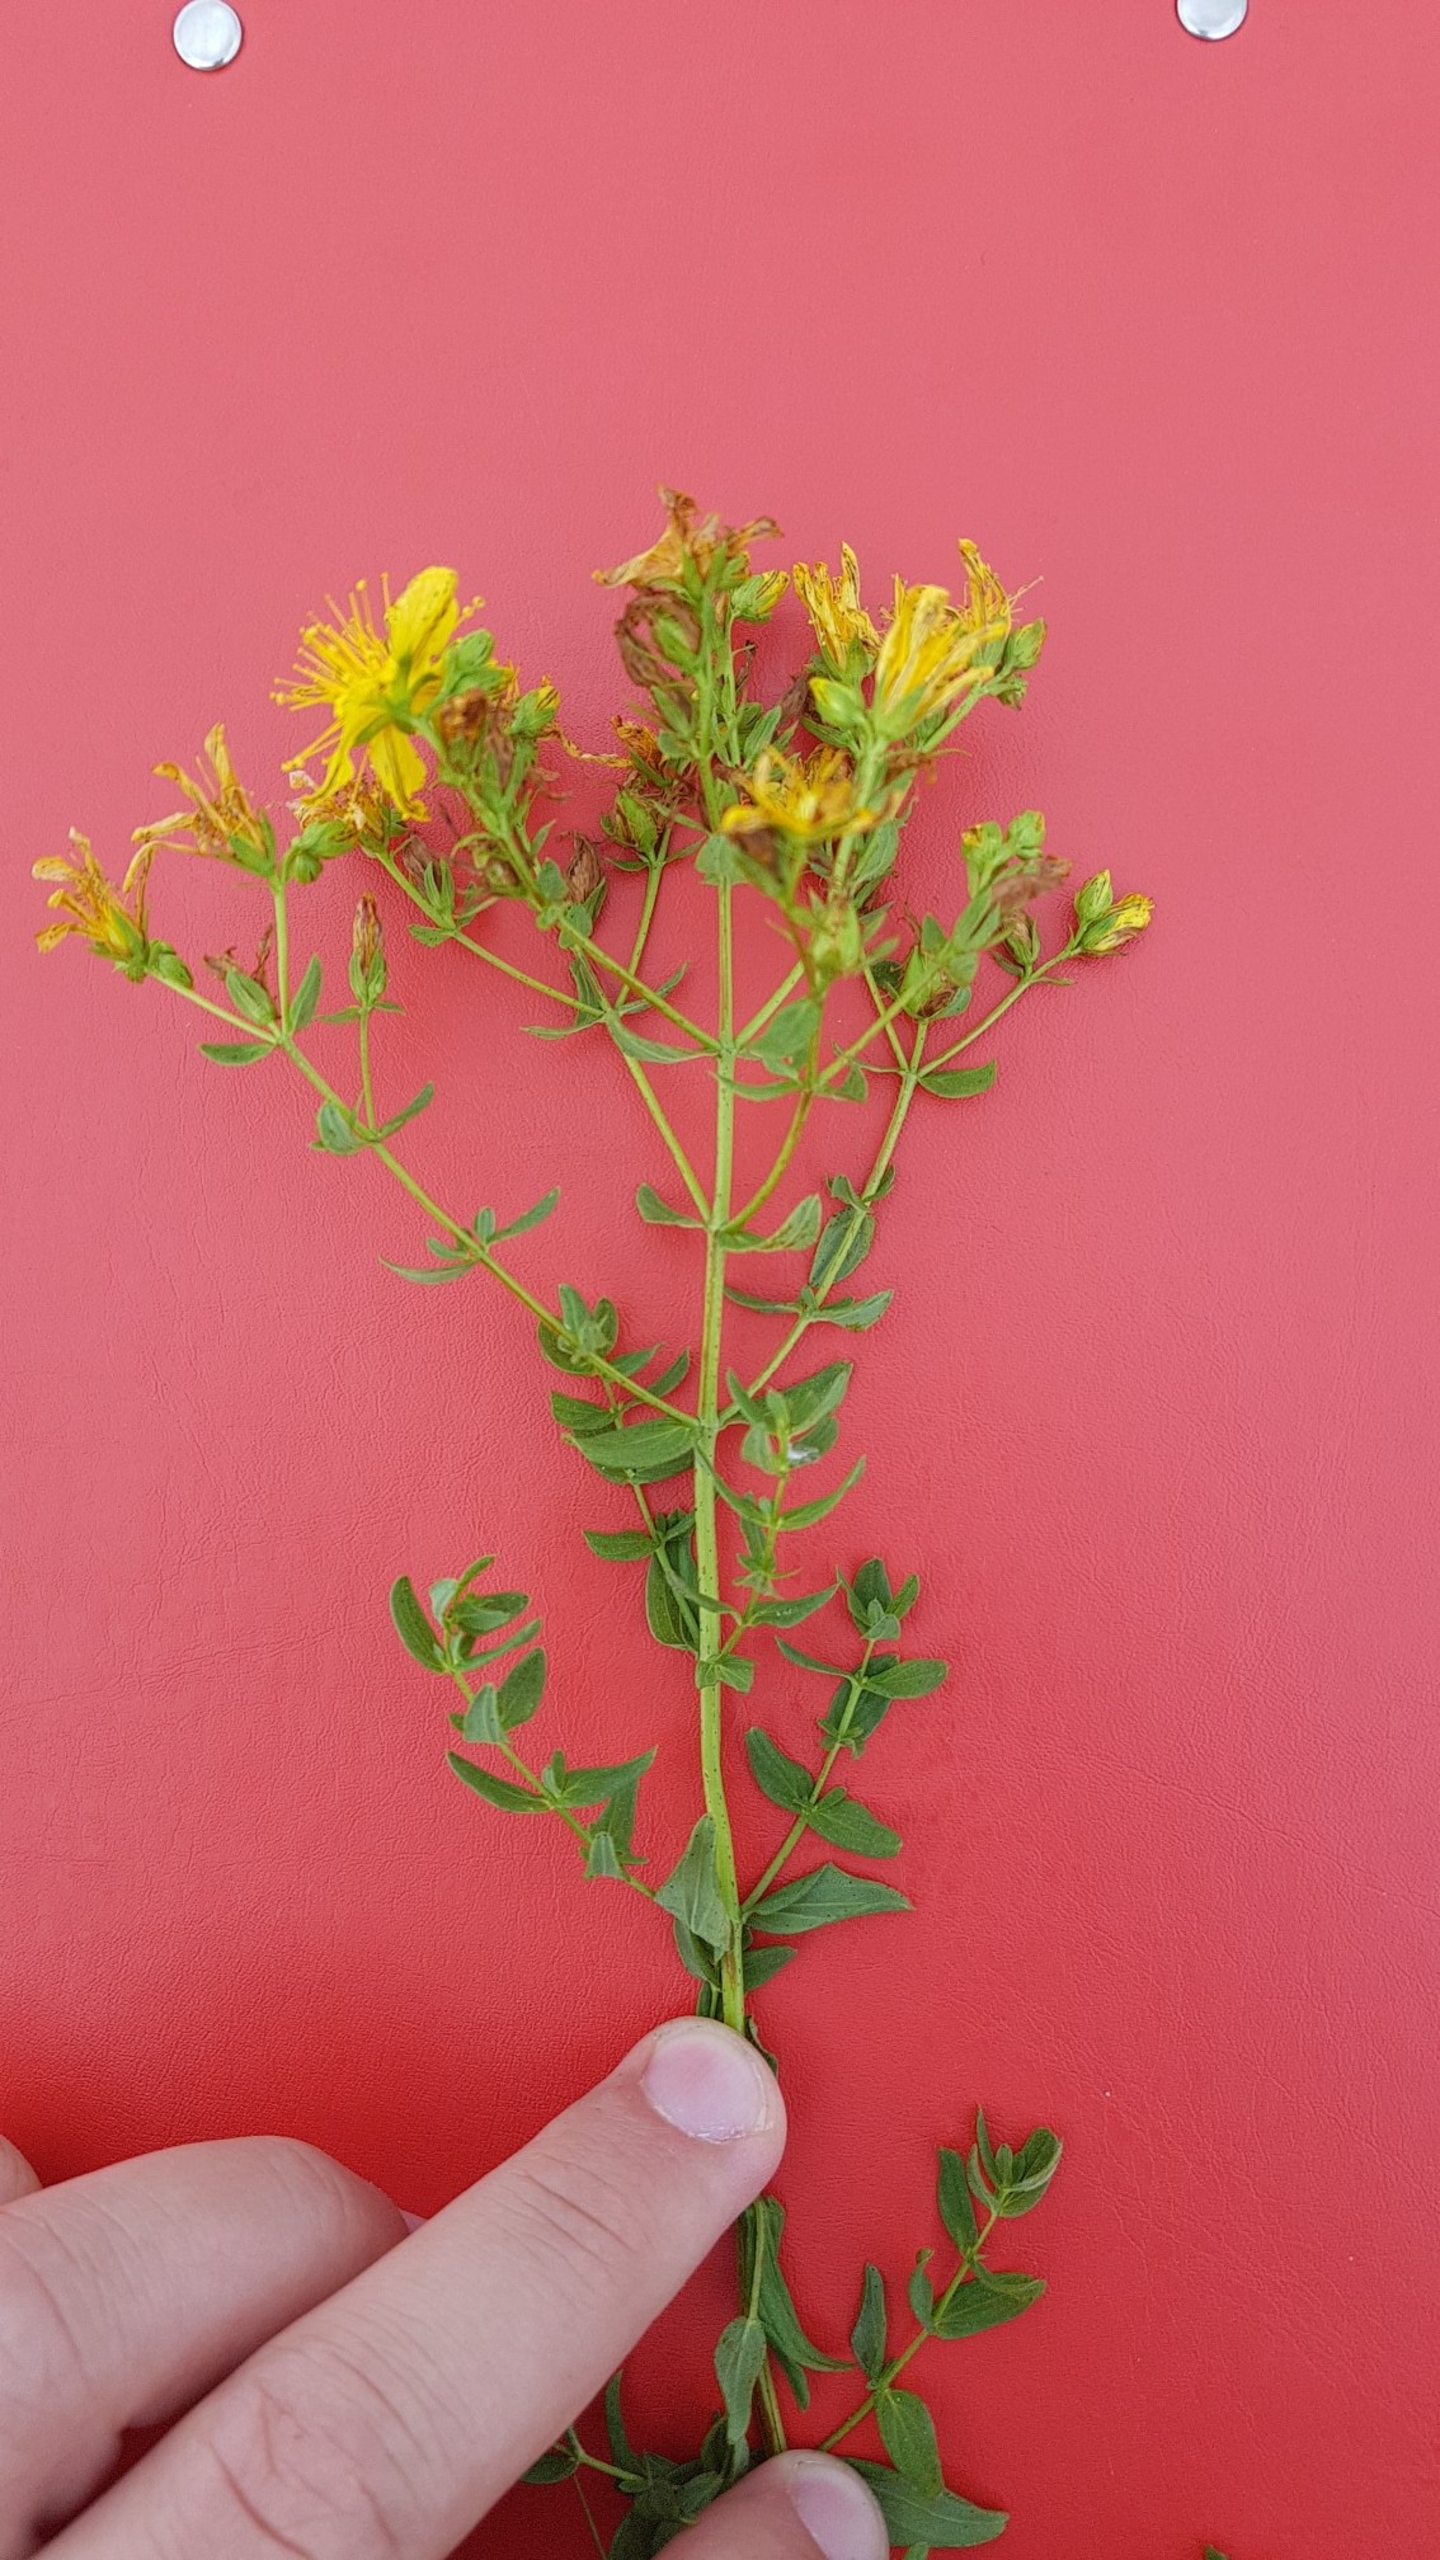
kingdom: Plantae
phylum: Tracheophyta
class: Magnoliopsida
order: Malpighiales
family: Hypericaceae
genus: Hypericum
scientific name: Hypericum perforatum
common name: Prikbladet perikon
